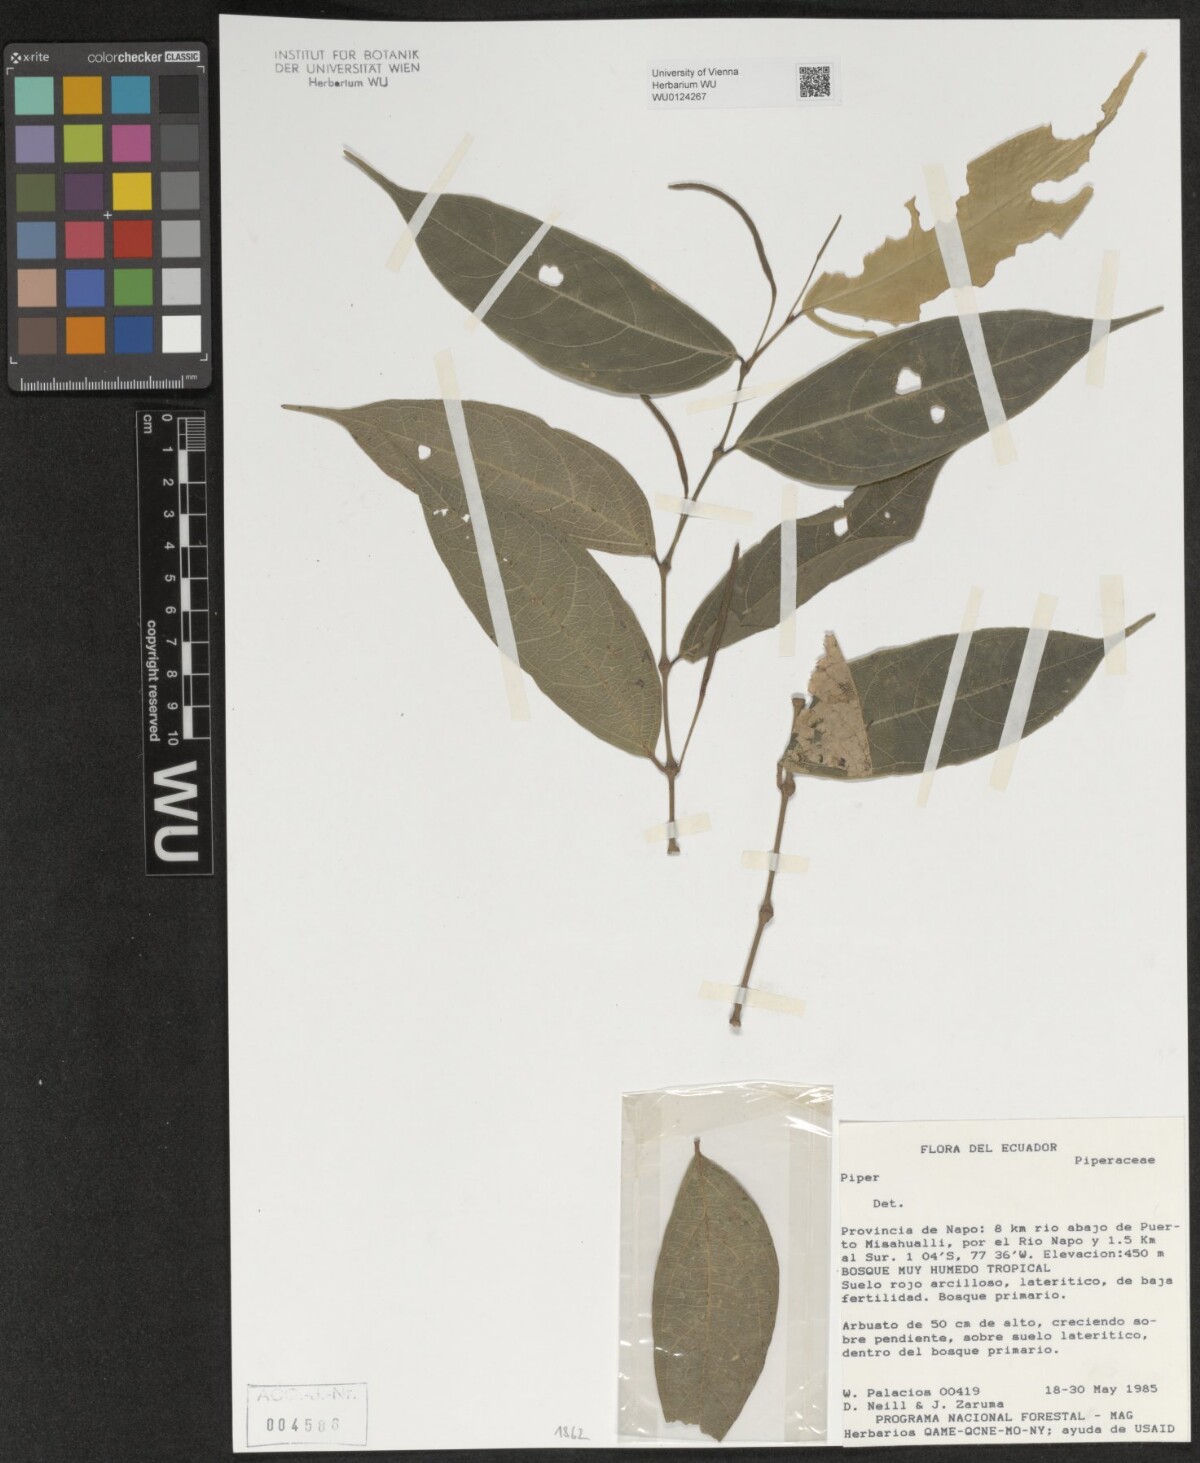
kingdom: Plantae
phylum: Tracheophyta
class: Magnoliopsida
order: Piperales
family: Piperaceae
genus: Piper
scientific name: Piper
